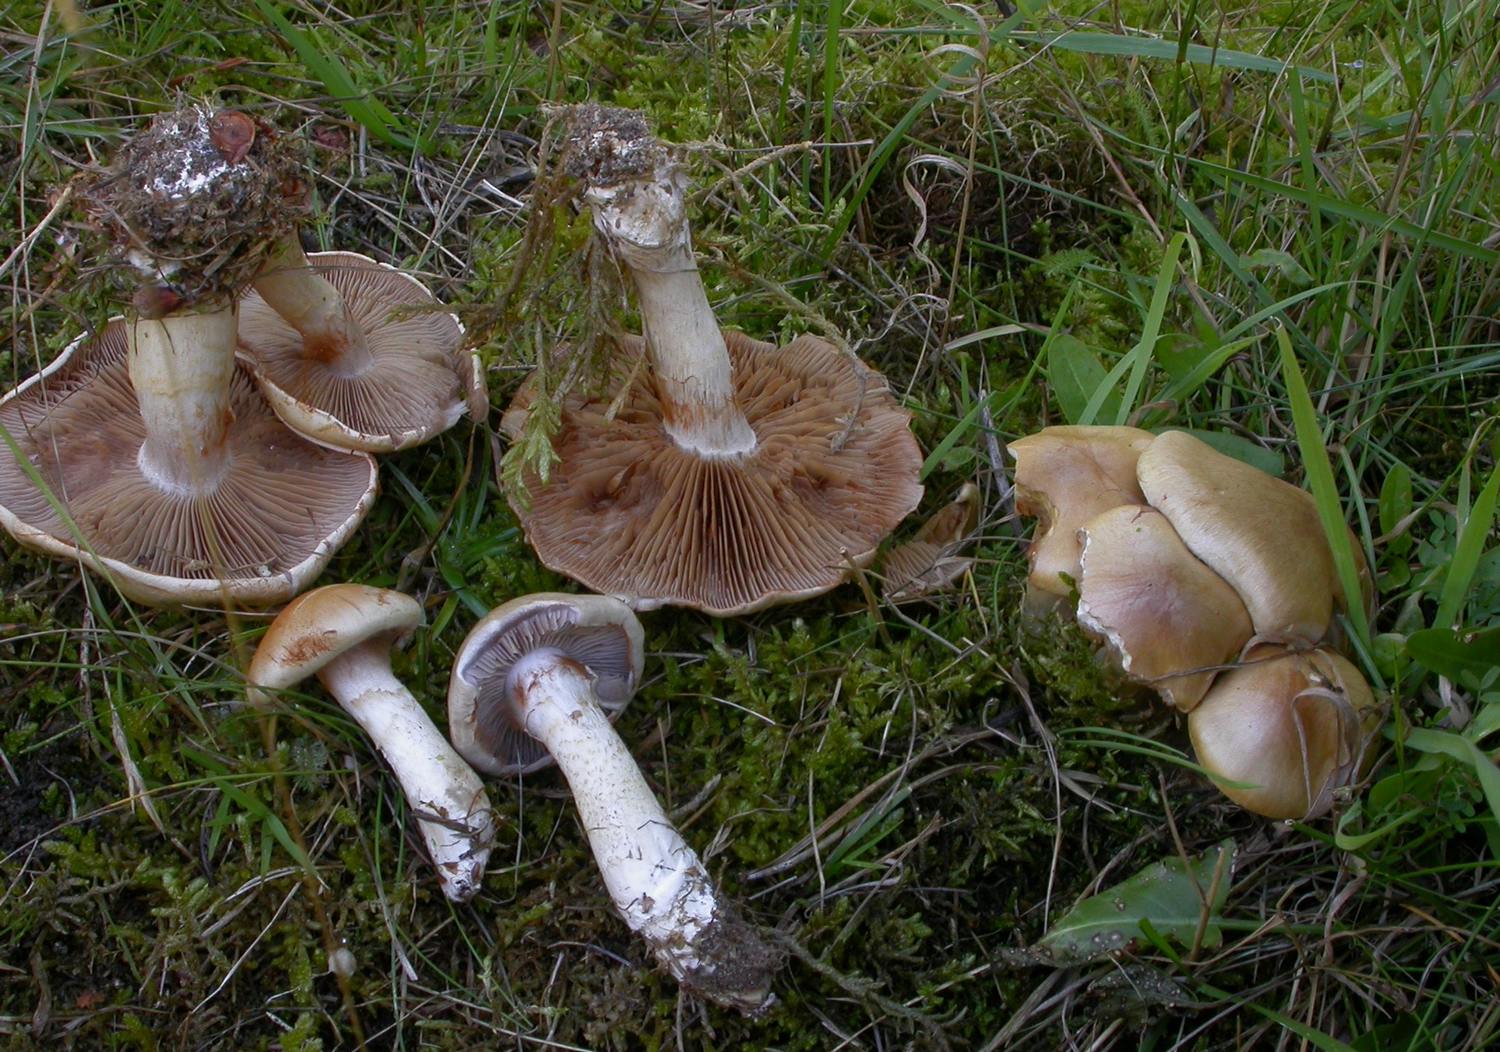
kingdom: Fungi
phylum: Basidiomycota
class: Agaricomycetes
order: Agaricales
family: Cortinariaceae
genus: Cortinarius
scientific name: Cortinarius tabularis
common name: lerbrun slørhat
